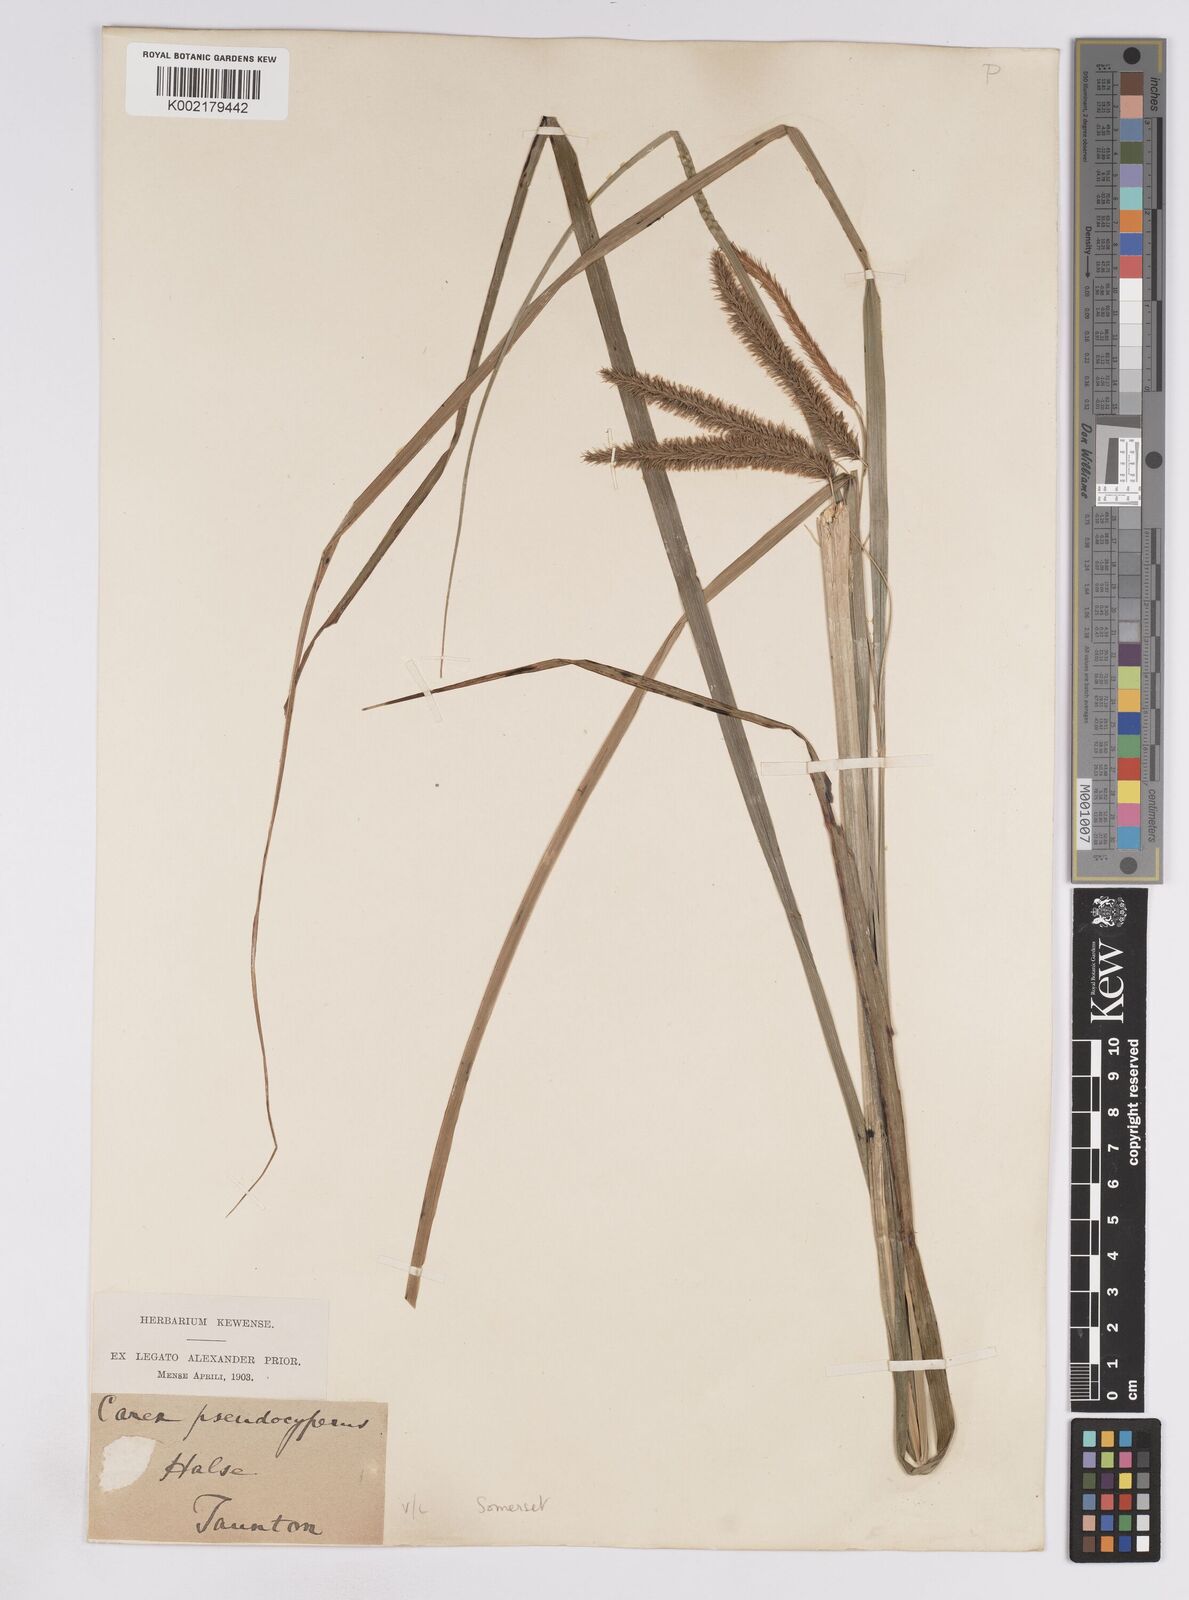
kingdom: Plantae
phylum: Tracheophyta
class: Liliopsida
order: Poales
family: Cyperaceae
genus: Carex
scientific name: Carex pseudocyperus
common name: Cyperus sedge
